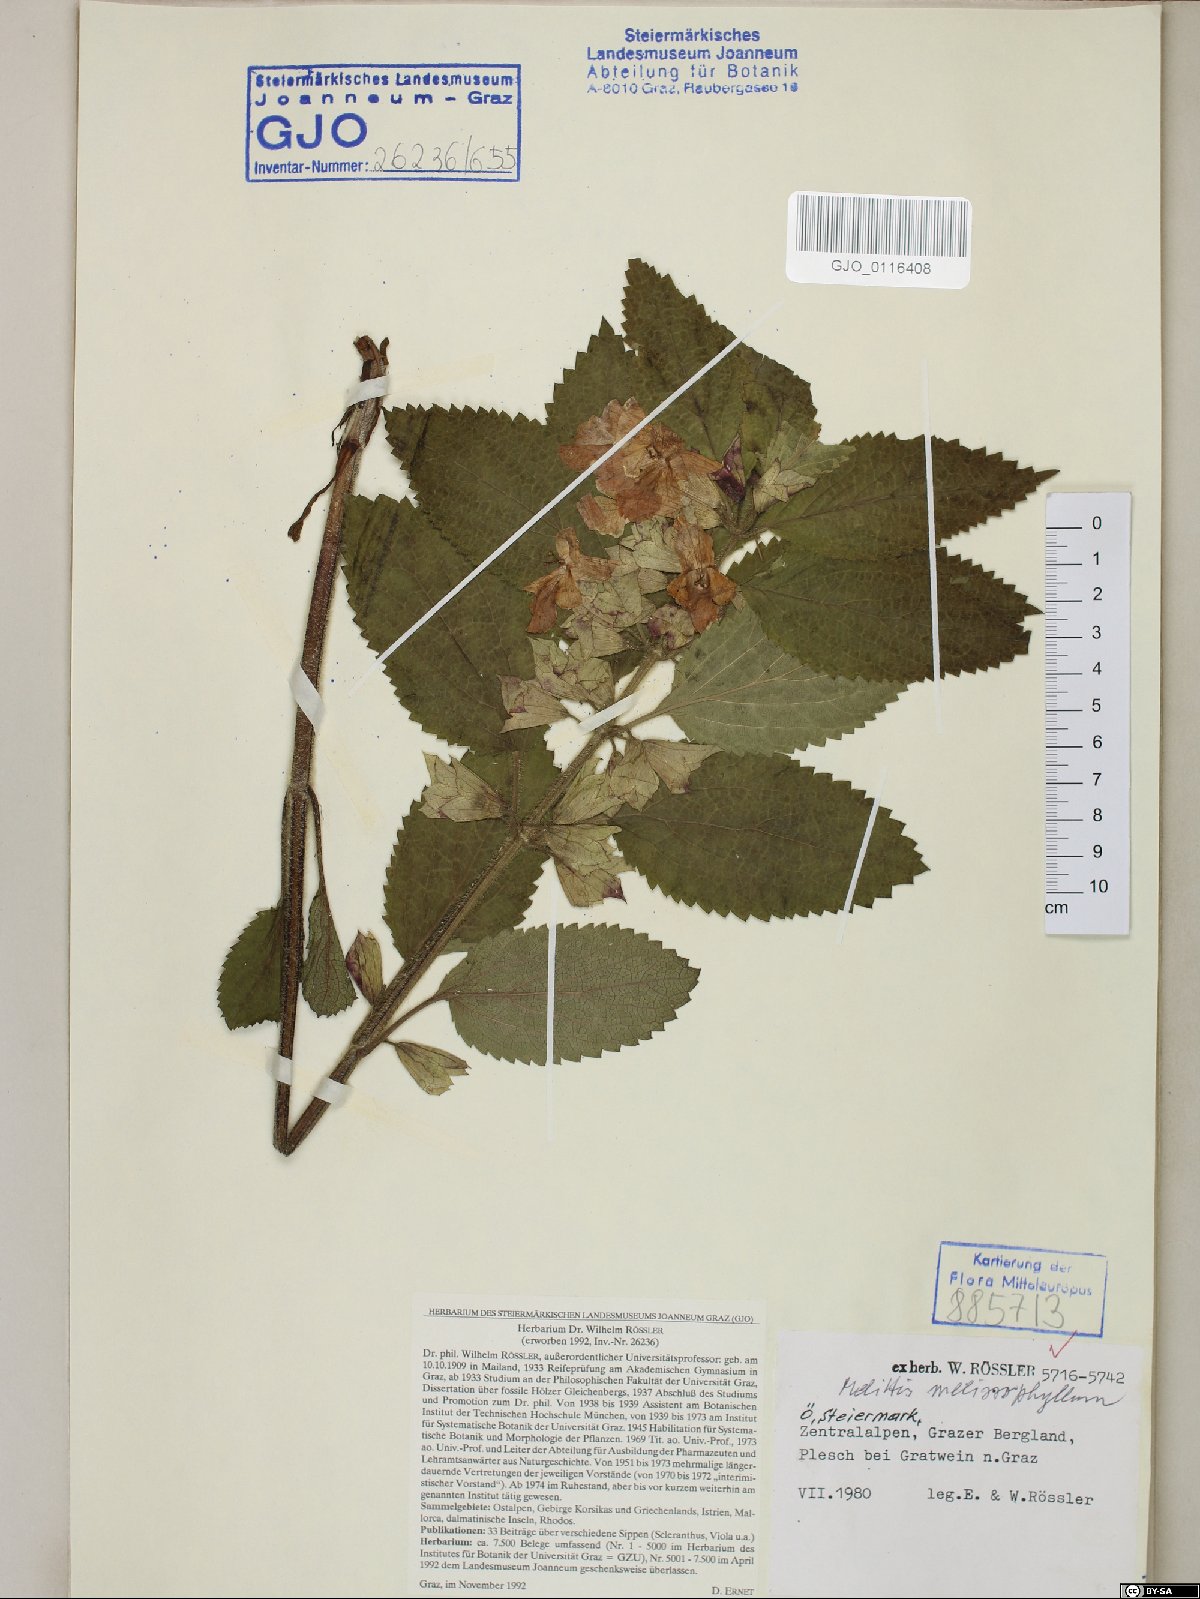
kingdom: Plantae
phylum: Tracheophyta
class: Magnoliopsida
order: Lamiales
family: Lamiaceae
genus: Melittis
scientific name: Melittis melissophyllum
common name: Bastard balm
